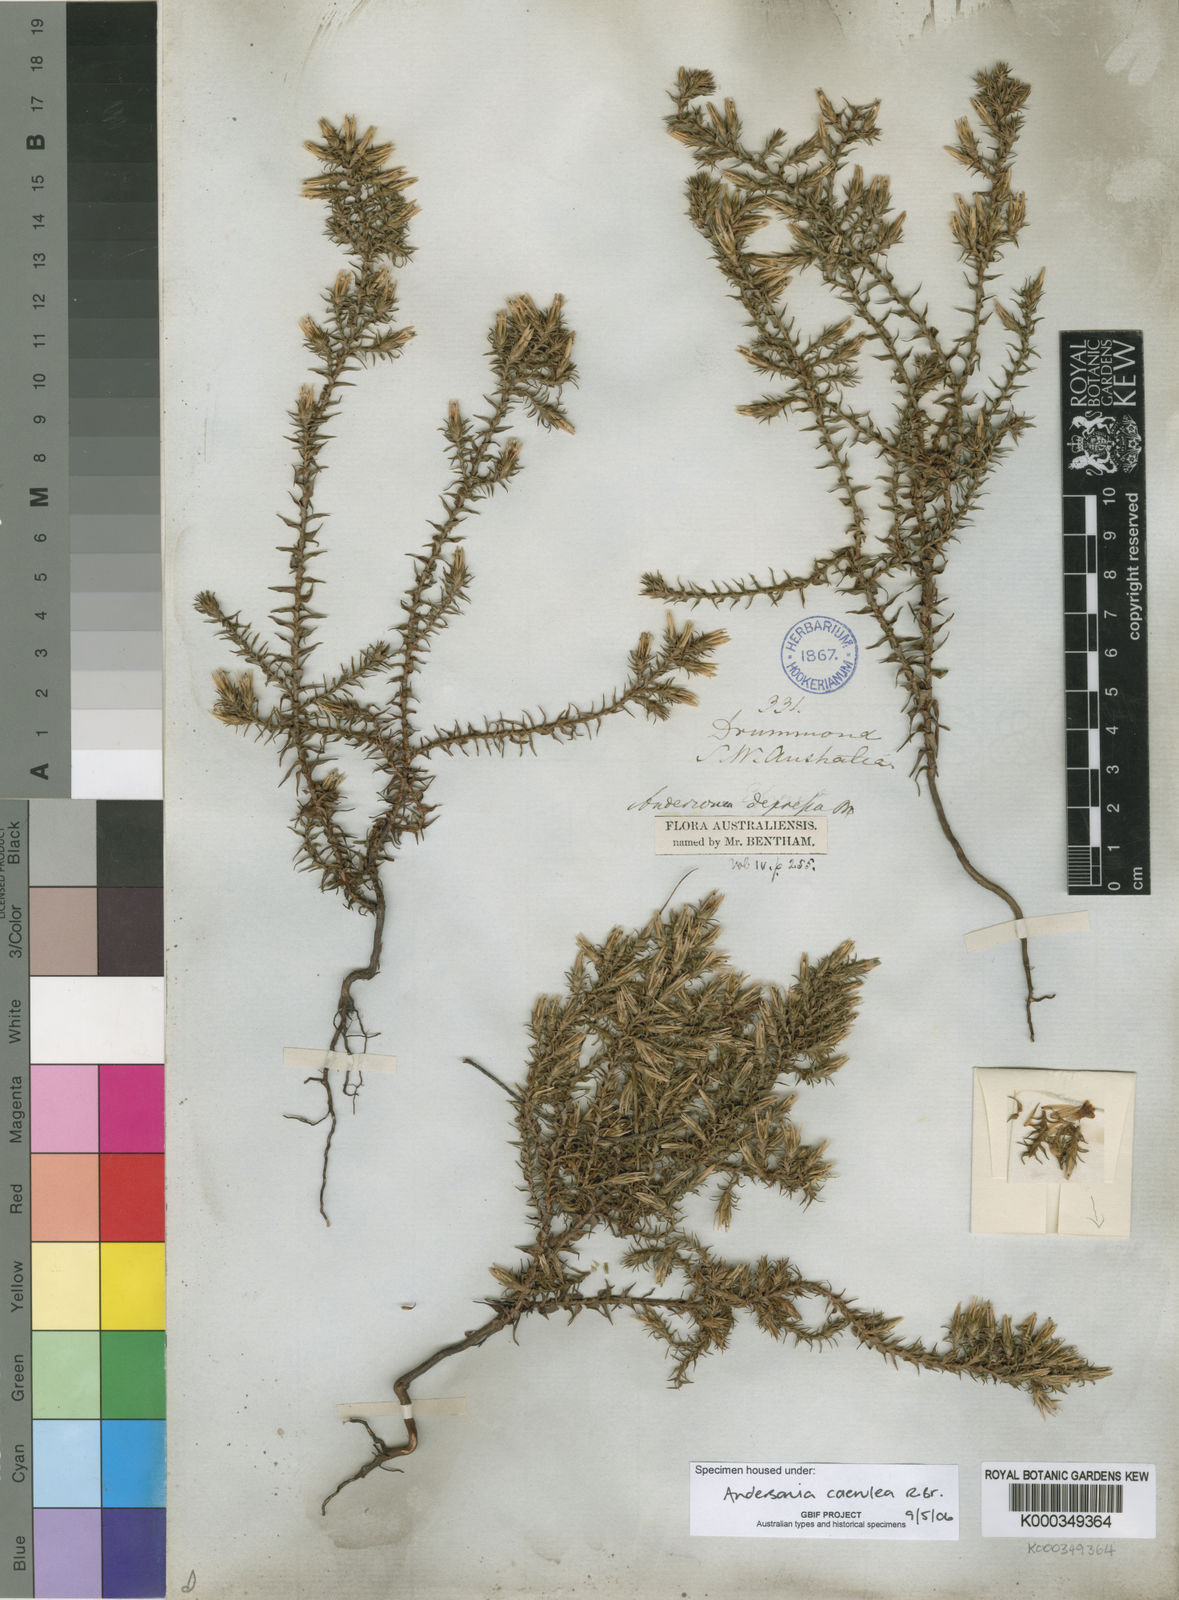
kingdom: Plantae
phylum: Tracheophyta
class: Magnoliopsida
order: Ericales
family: Ericaceae
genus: Andersonia
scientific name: Andersonia caerulea
